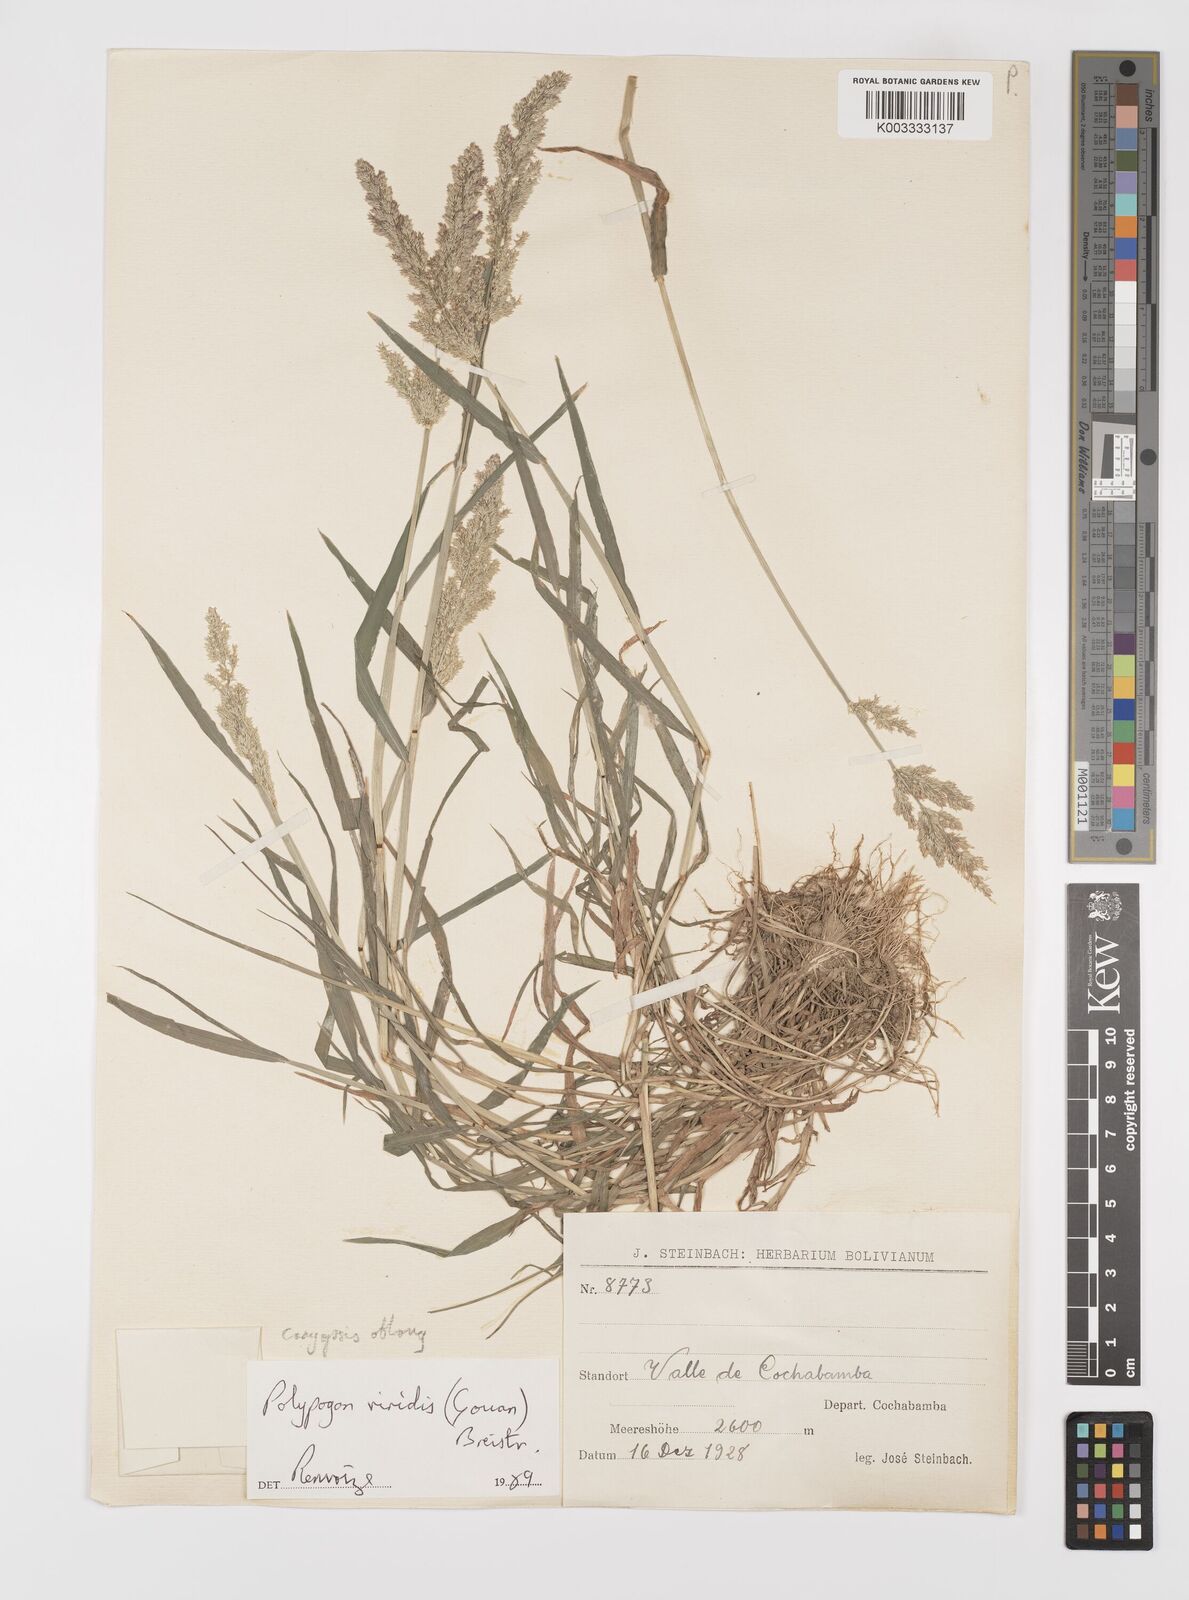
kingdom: Plantae
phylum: Tracheophyta
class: Liliopsida
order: Poales
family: Poaceae
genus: Polypogon
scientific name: Polypogon viridis
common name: Water bent
